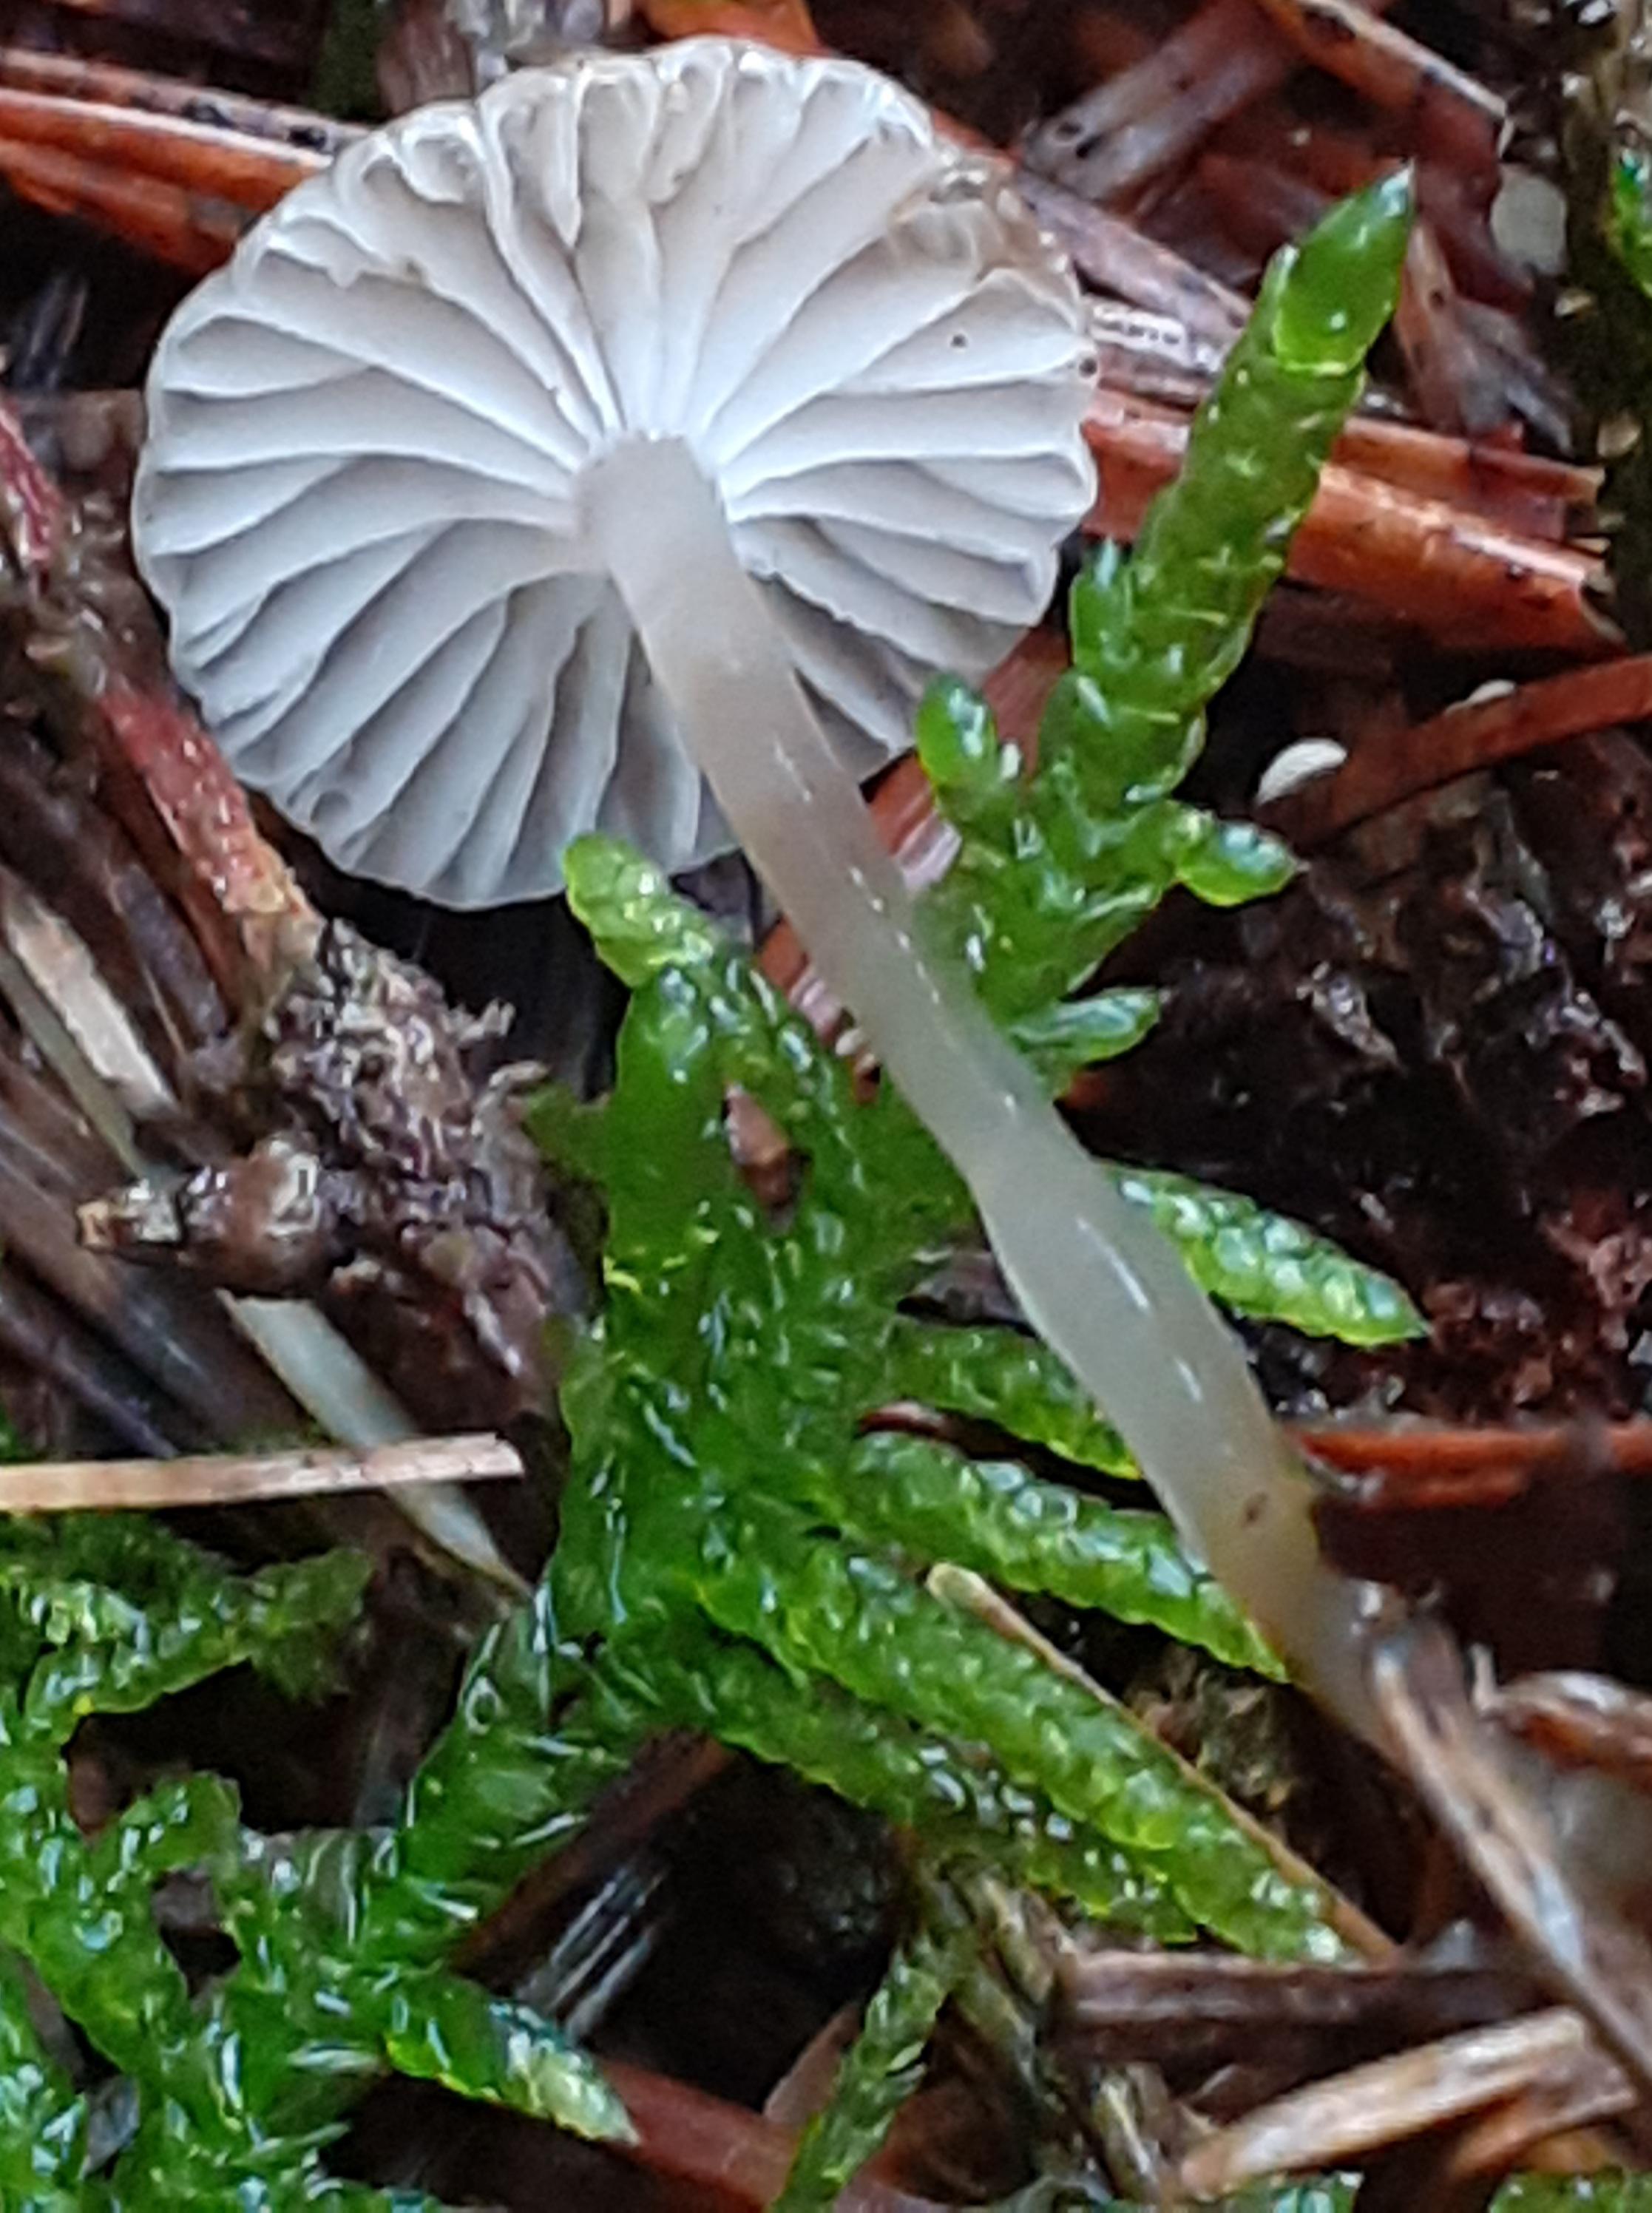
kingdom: Fungi
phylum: Basidiomycota
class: Agaricomycetes
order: Agaricales
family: Mycenaceae
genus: Roridomyces
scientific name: Roridomyces roridus
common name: slimfod
